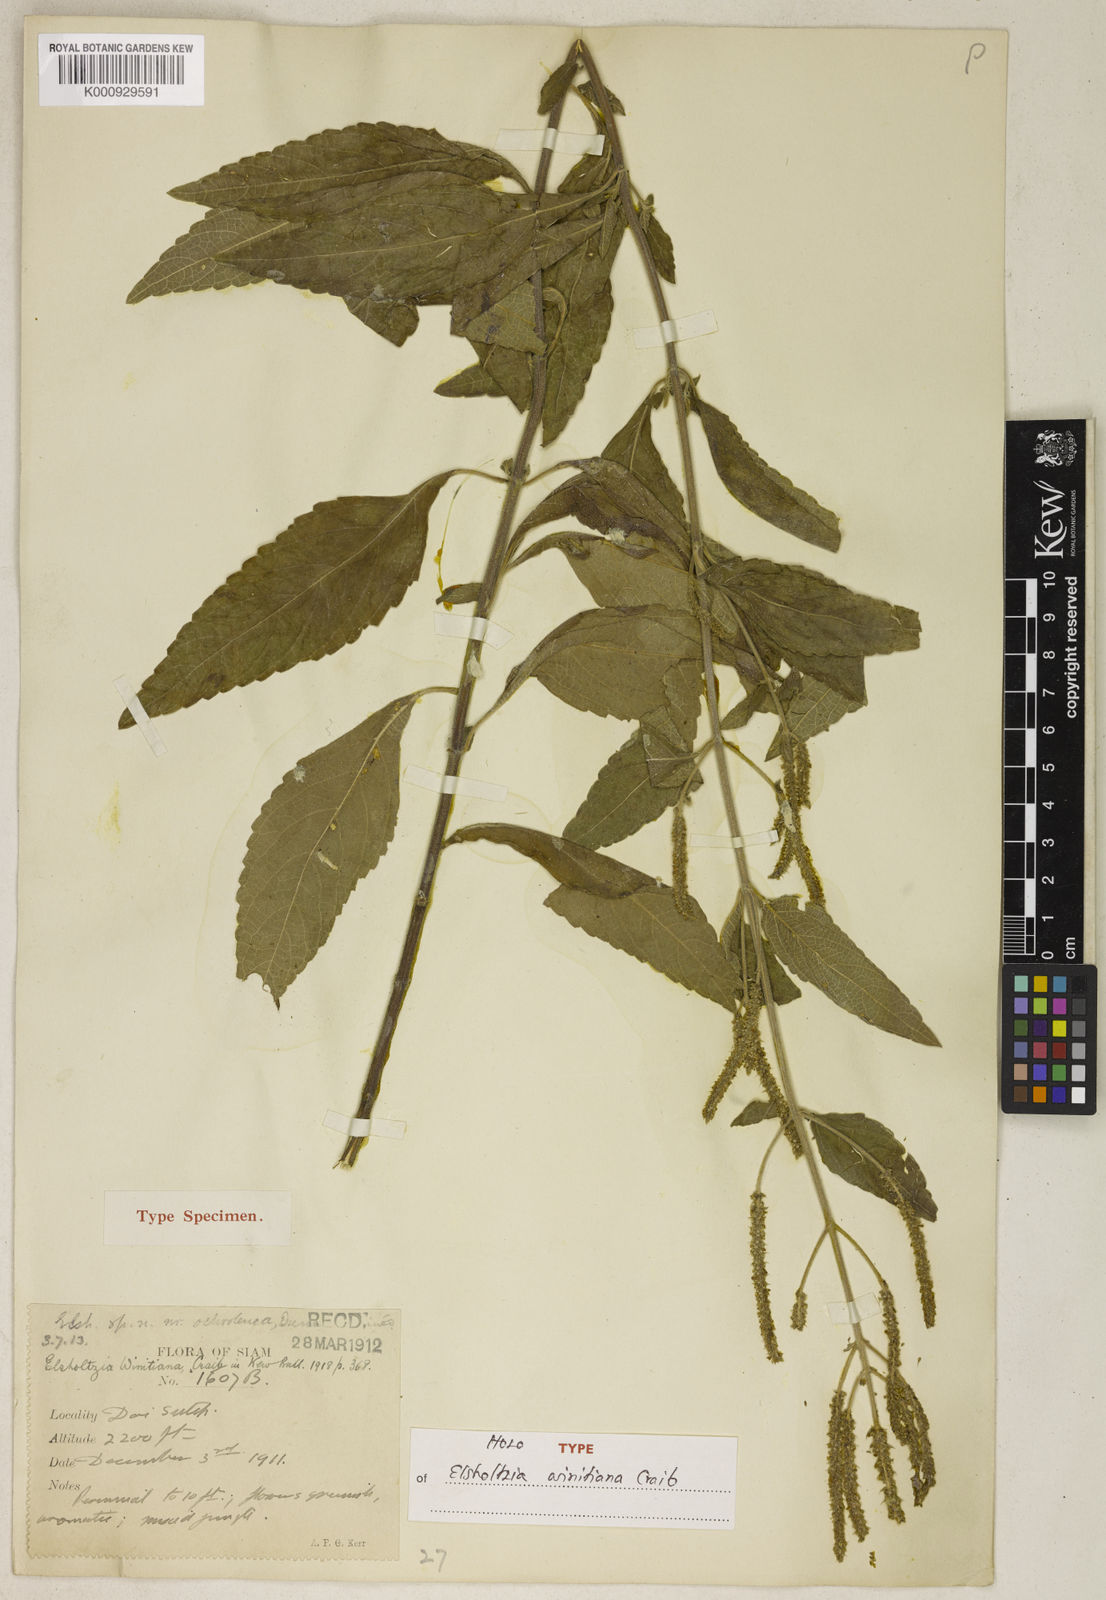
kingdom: Plantae
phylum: Tracheophyta
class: Magnoliopsida
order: Lamiales
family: Lamiaceae
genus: Elsholtzia
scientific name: Elsholtzia winitiana
